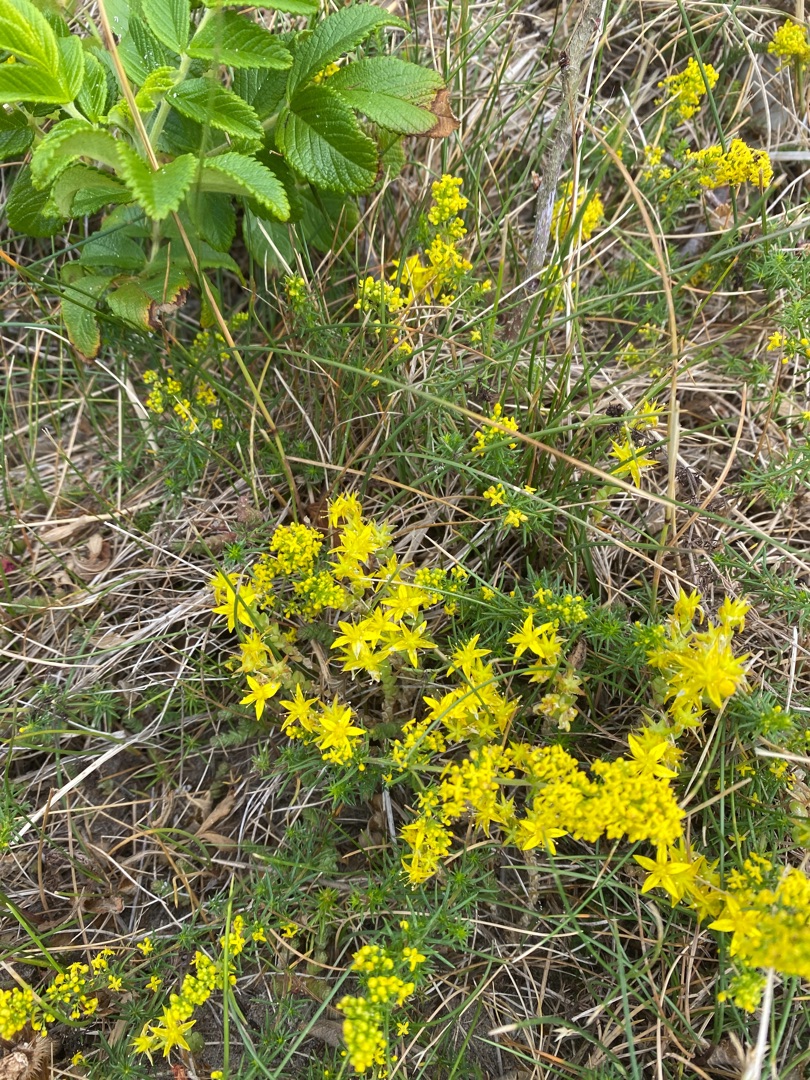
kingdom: Plantae
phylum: Tracheophyta
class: Magnoliopsida
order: Saxifragales
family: Crassulaceae
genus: Sedum
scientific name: Sedum acre
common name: Bidende stenurt
